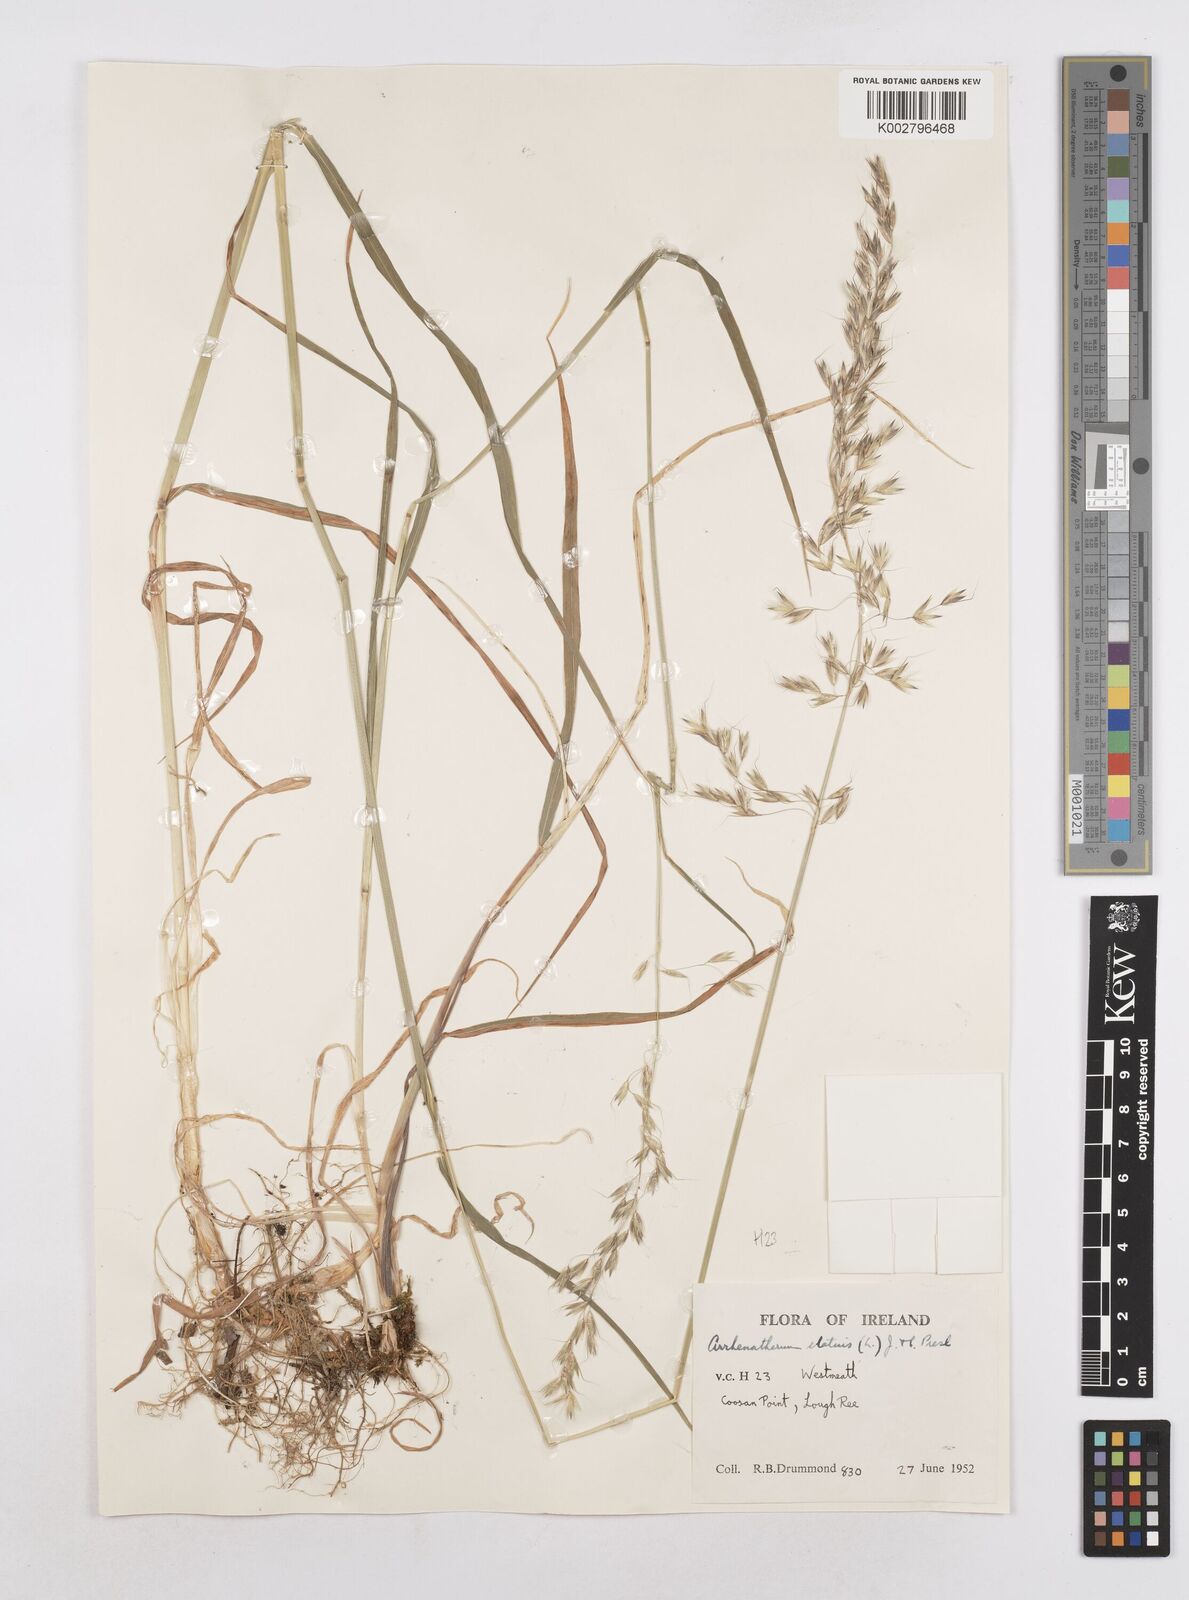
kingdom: Plantae
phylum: Tracheophyta
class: Liliopsida
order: Poales
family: Poaceae
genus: Arrhenatherum
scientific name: Arrhenatherum elatius
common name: Tall oatgrass
